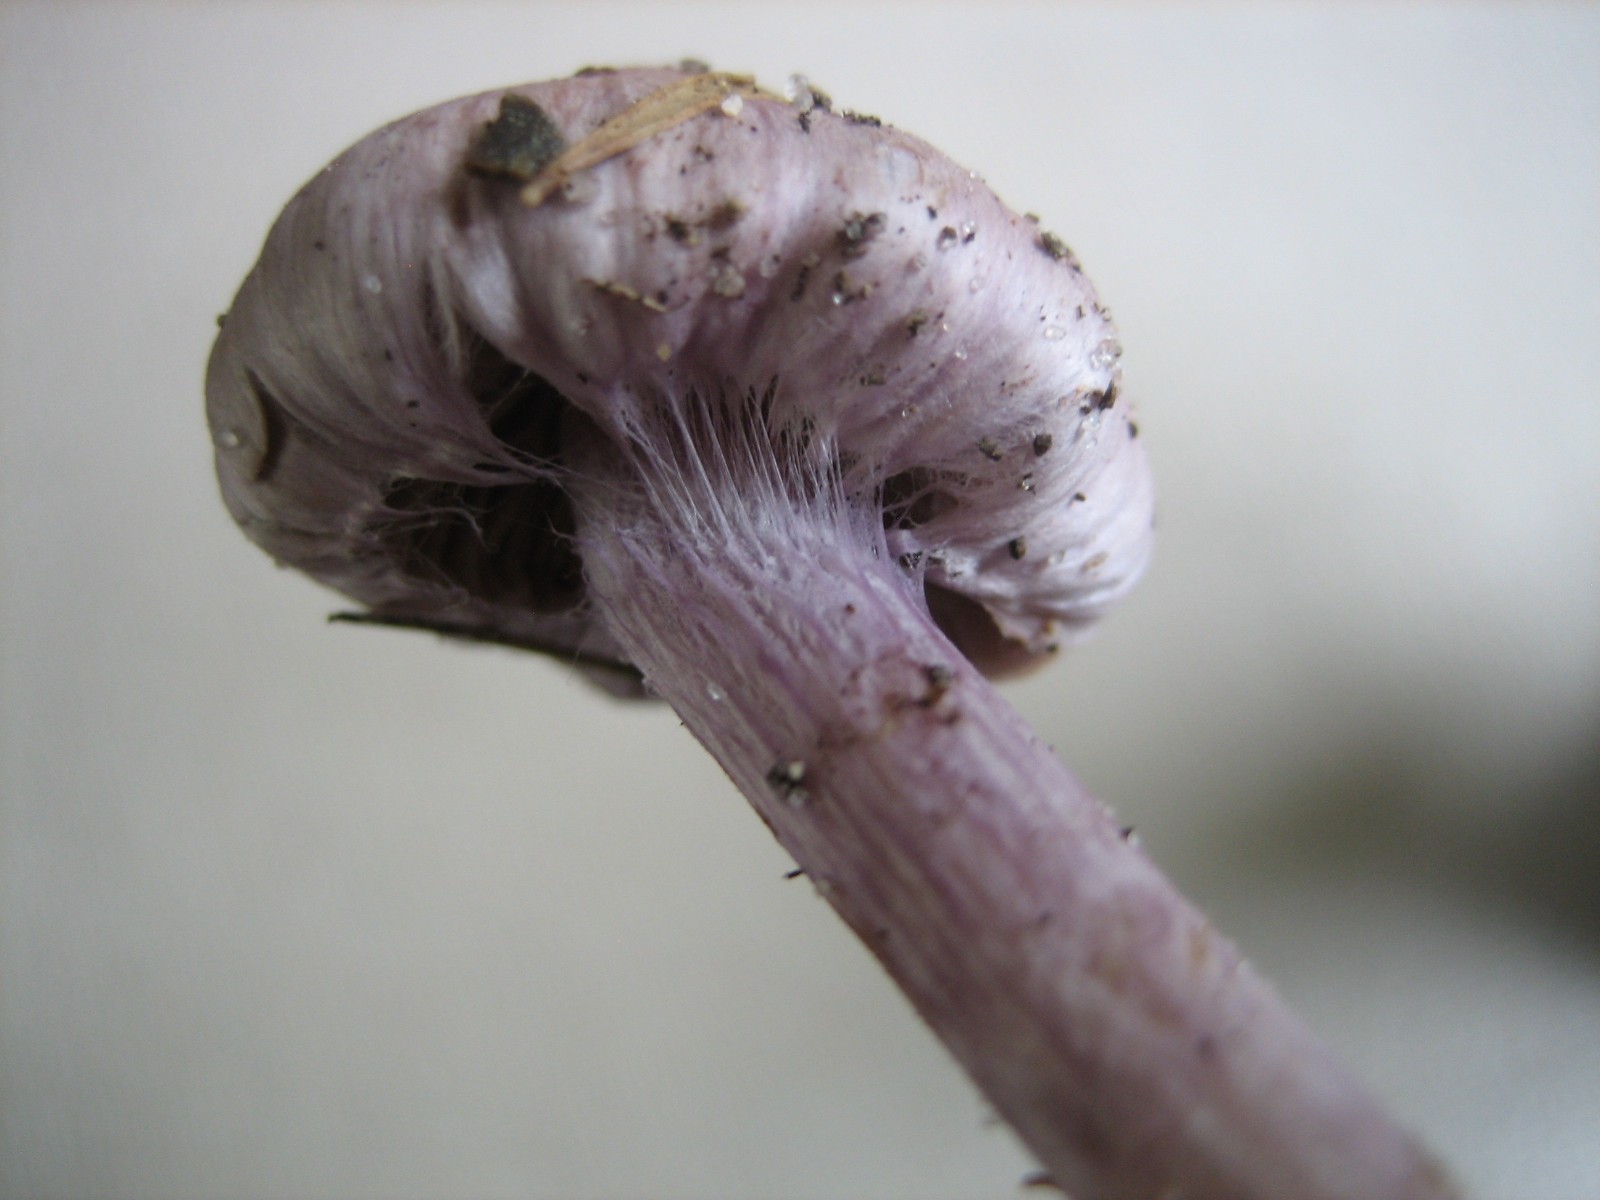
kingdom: Fungi
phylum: Basidiomycota
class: Agaricomycetes
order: Agaricales
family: Cortinariaceae
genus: Cortinarius
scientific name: Cortinarius
